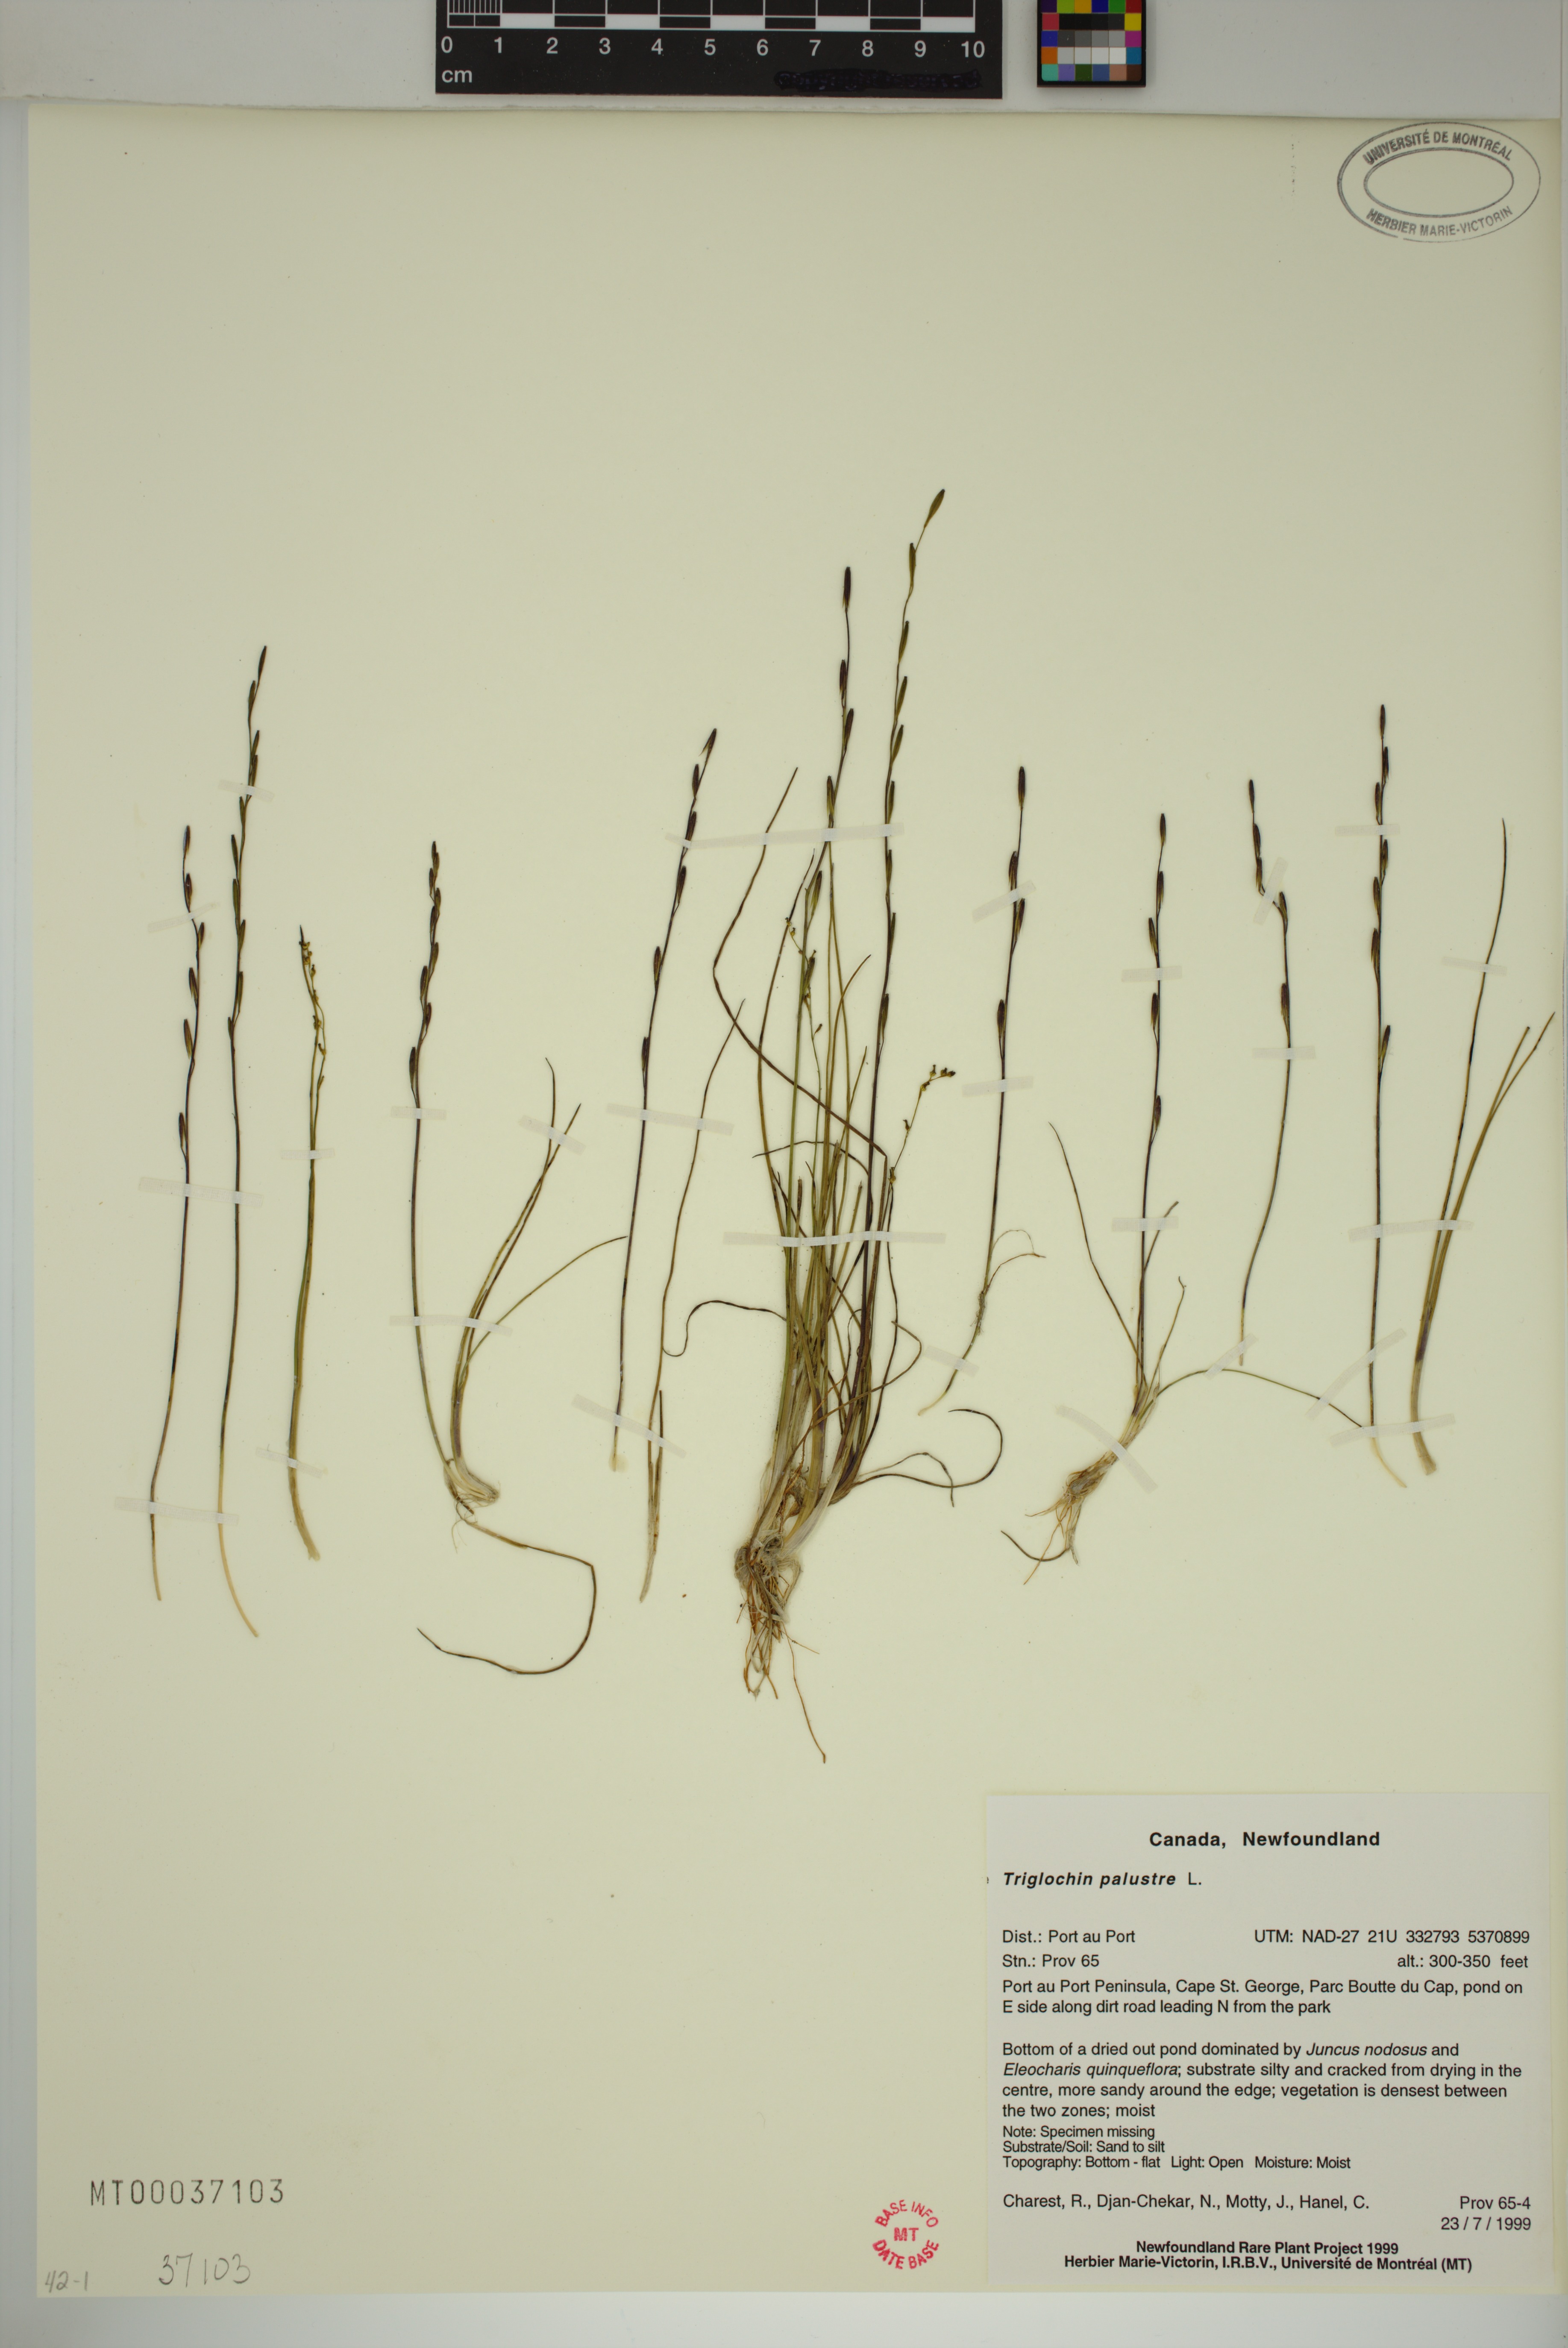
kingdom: Plantae
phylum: Tracheophyta
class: Liliopsida
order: Alismatales
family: Juncaginaceae
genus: Triglochin
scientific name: Triglochin palustris
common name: Marsh arrowgrass
